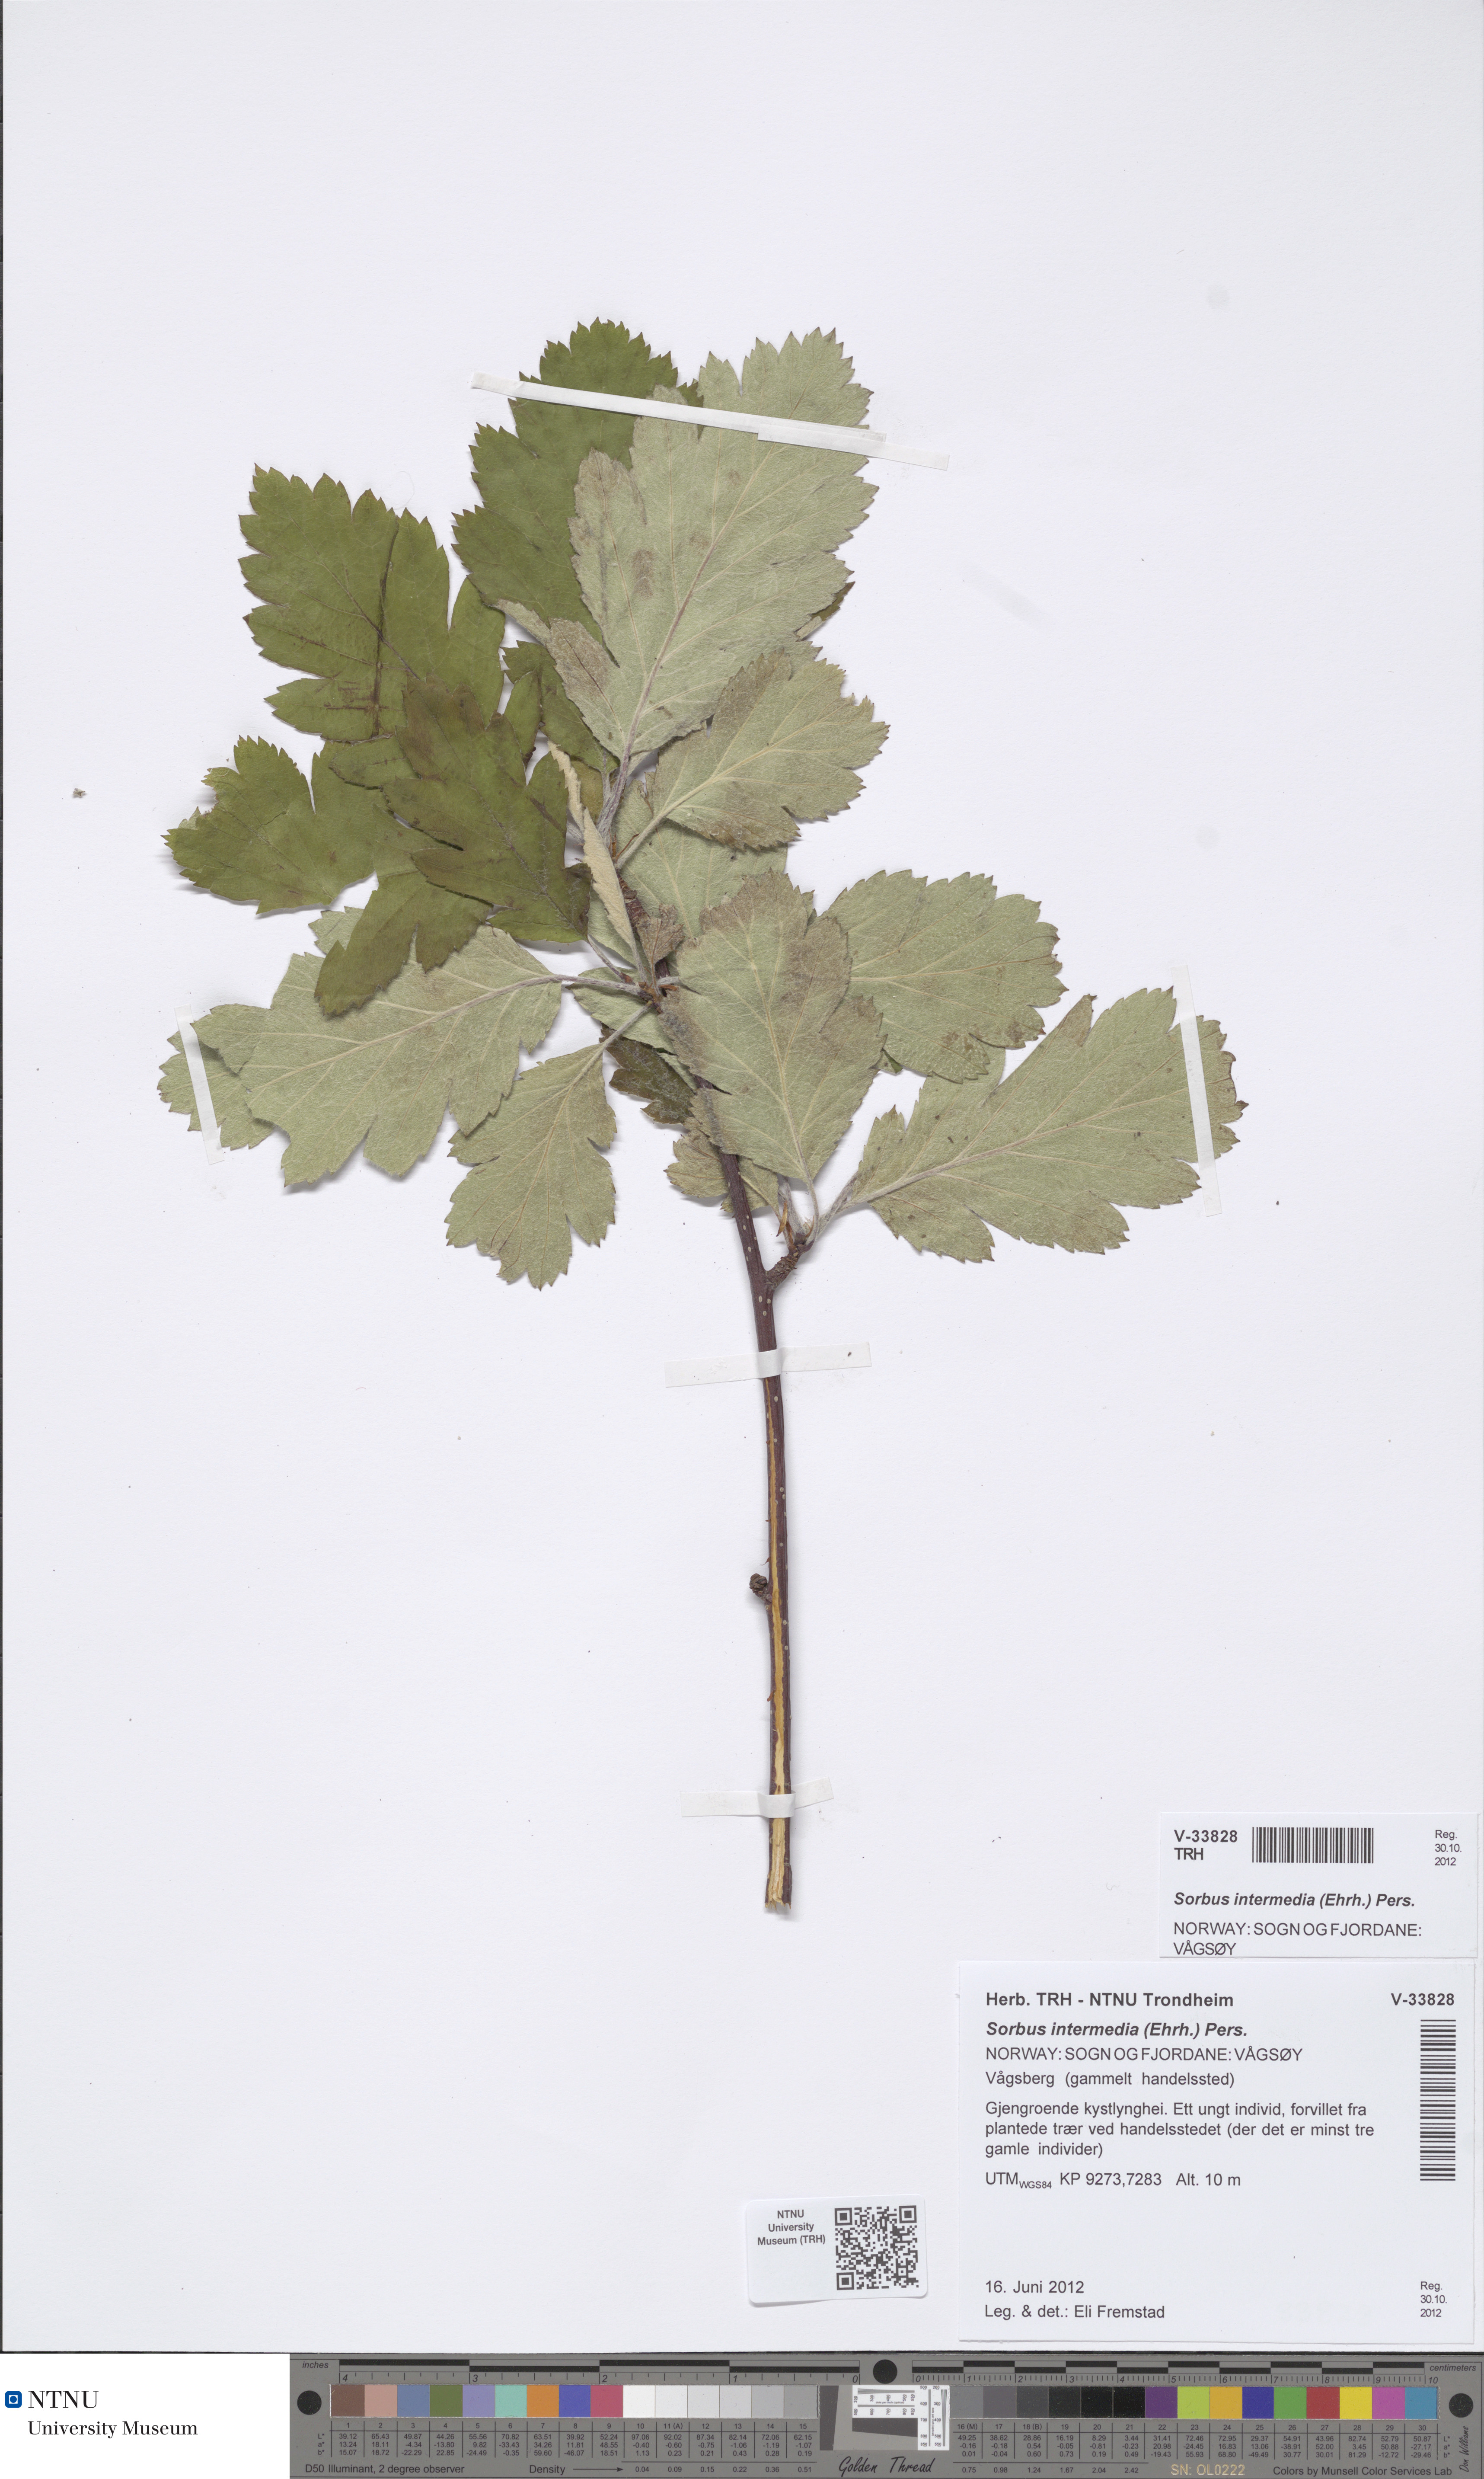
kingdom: Plantae
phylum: Tracheophyta
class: Magnoliopsida
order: Rosales
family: Rosaceae
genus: Scandosorbus
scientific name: Scandosorbus intermedia
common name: Swedish whitebeam
